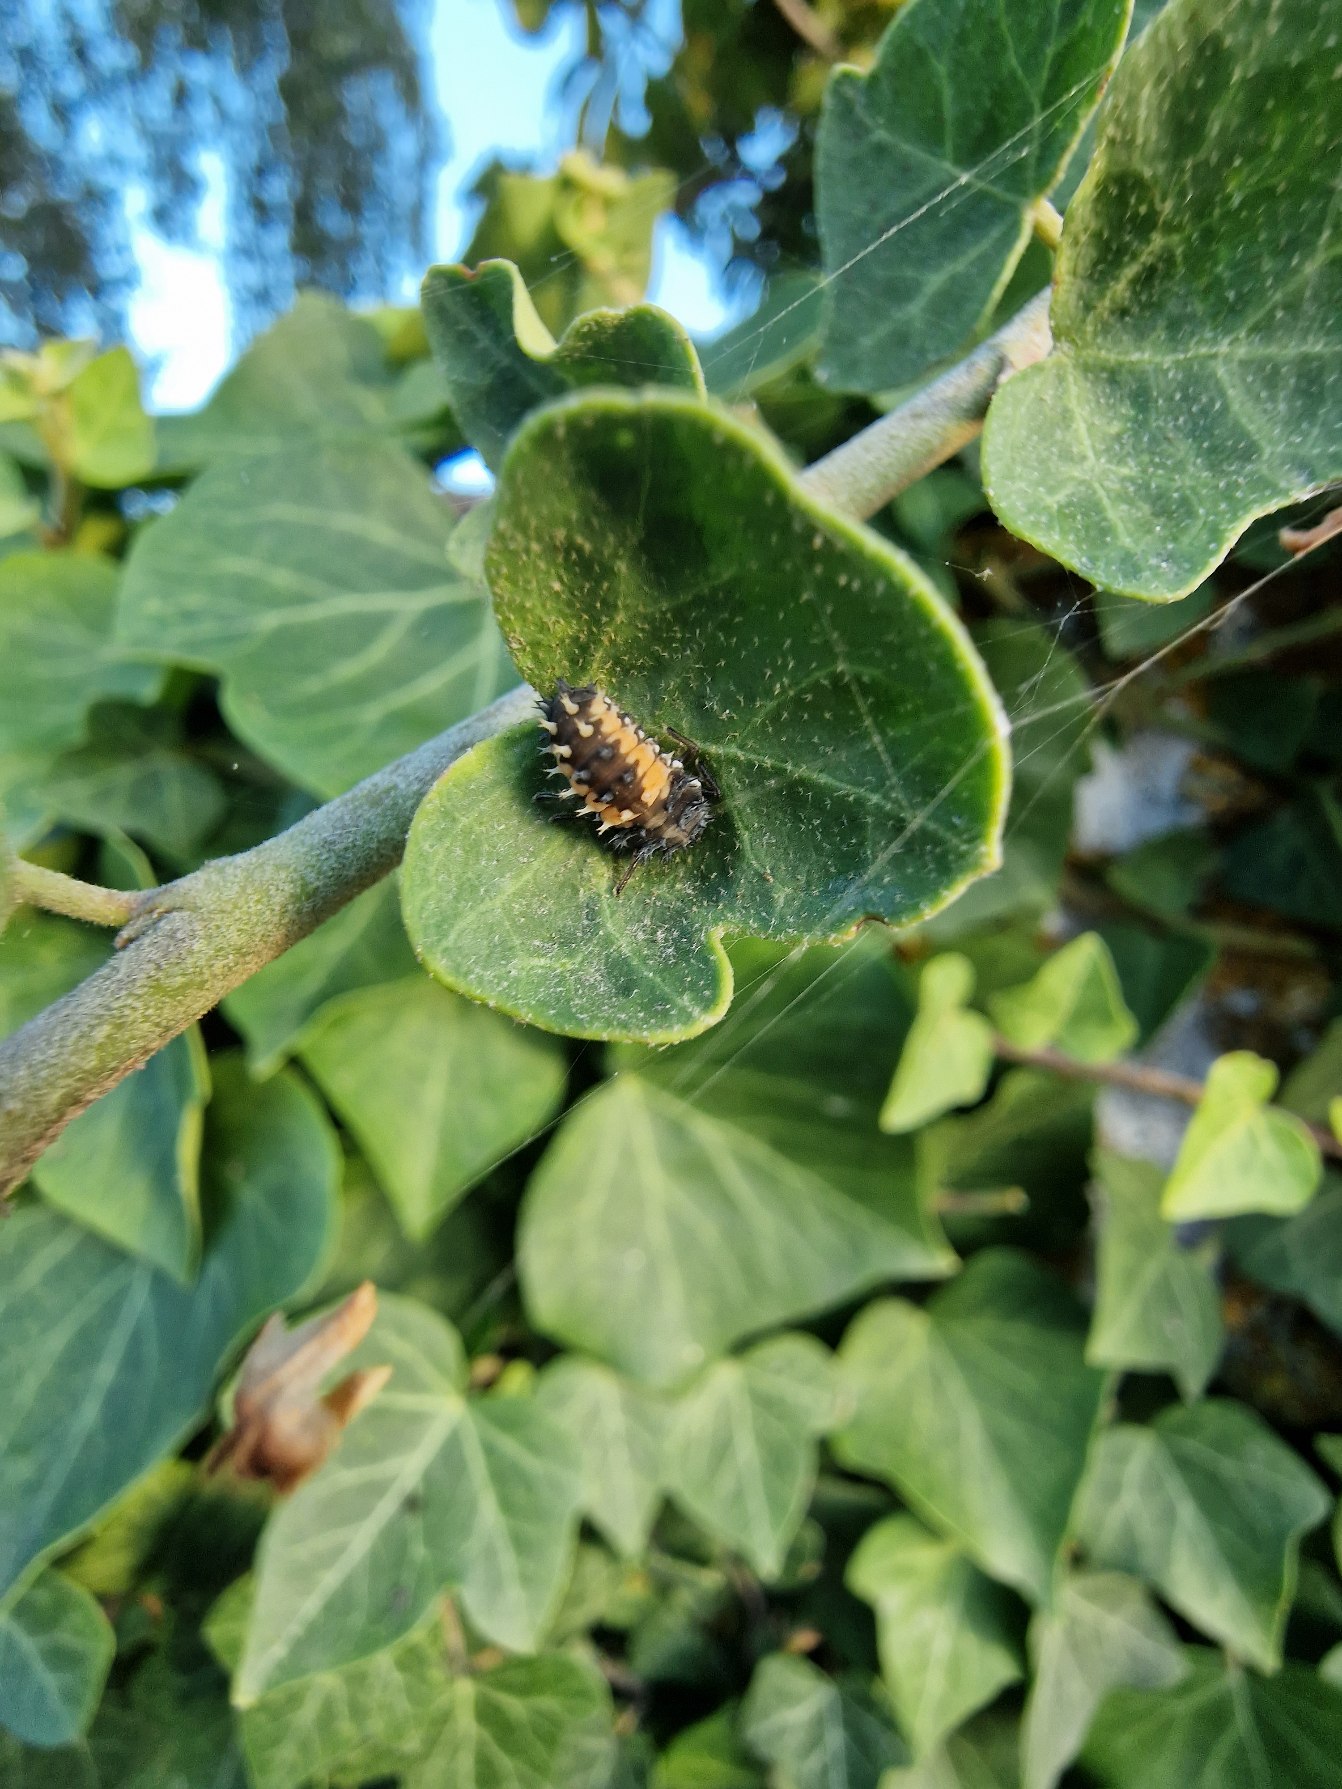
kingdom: Animalia
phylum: Arthropoda
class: Insecta
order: Coleoptera
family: Coccinellidae
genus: Harmonia
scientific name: Harmonia axyridis
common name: Harlekinmariehøne
